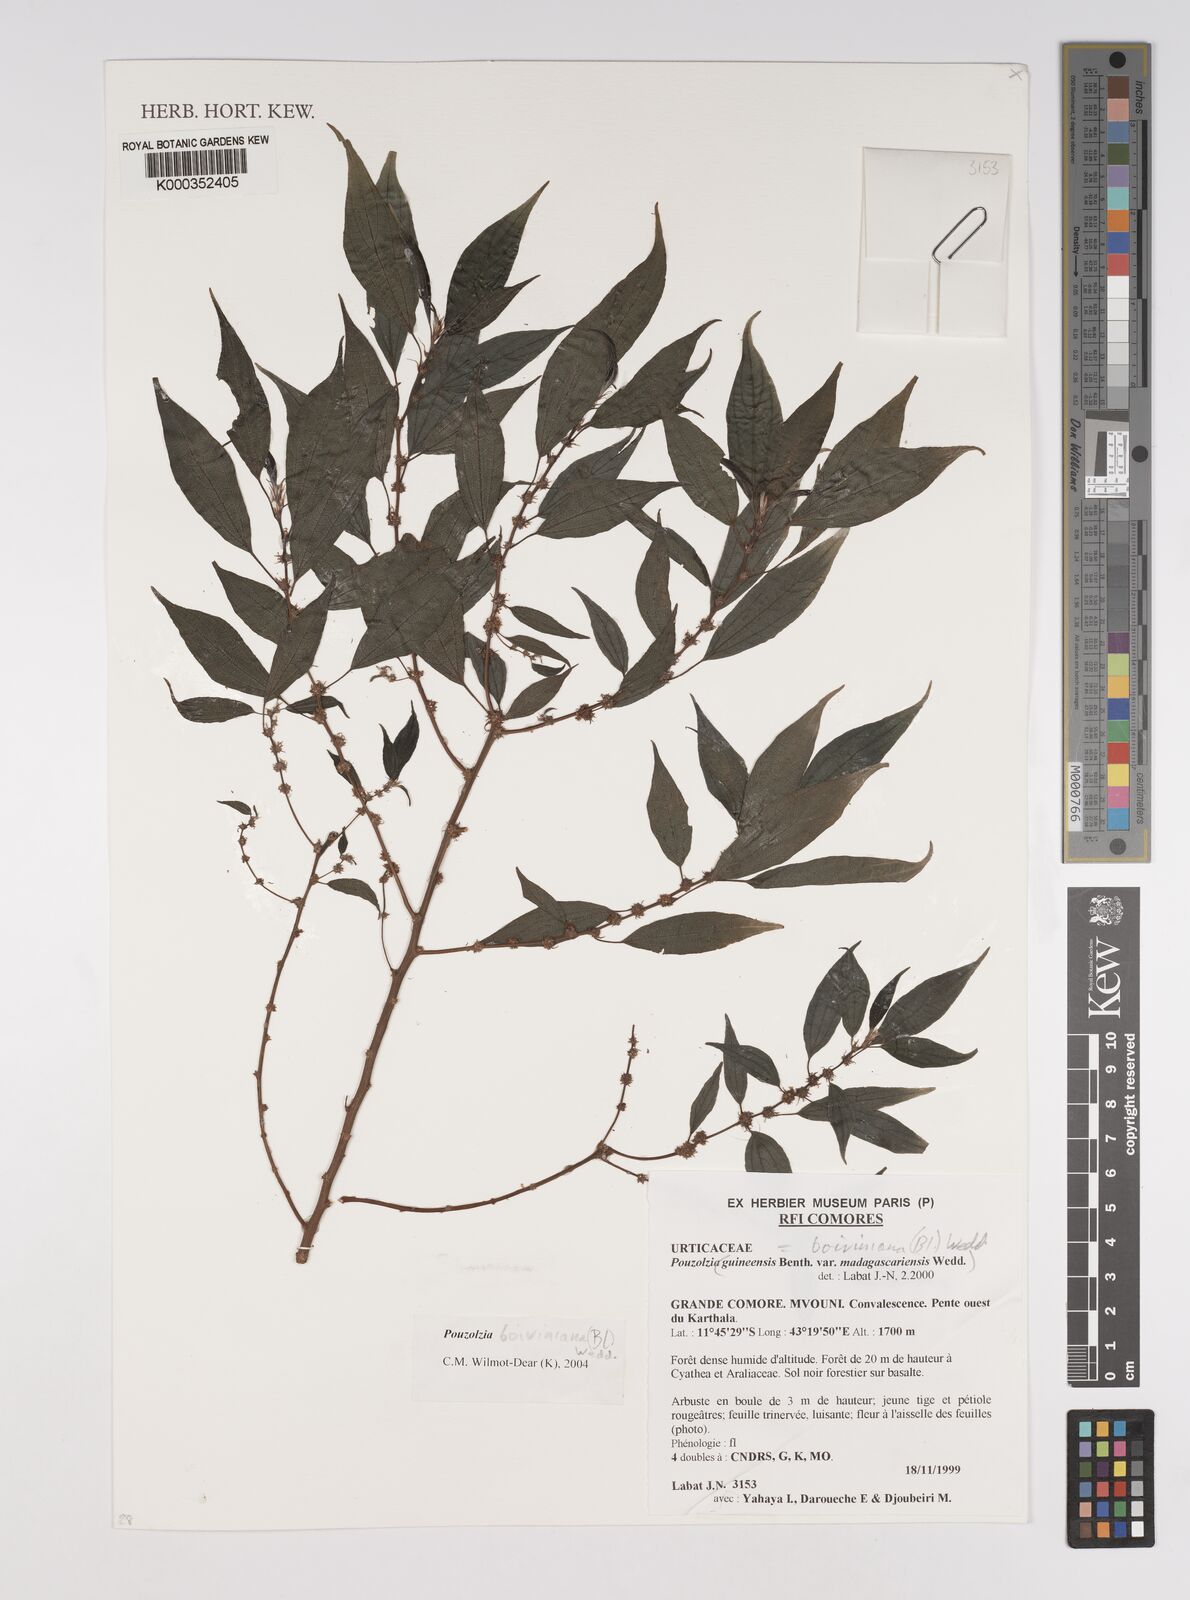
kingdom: Plantae
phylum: Tracheophyta
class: Magnoliopsida
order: Rosales
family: Urticaceae
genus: Pouzolzia
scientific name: Pouzolzia boiviniana
